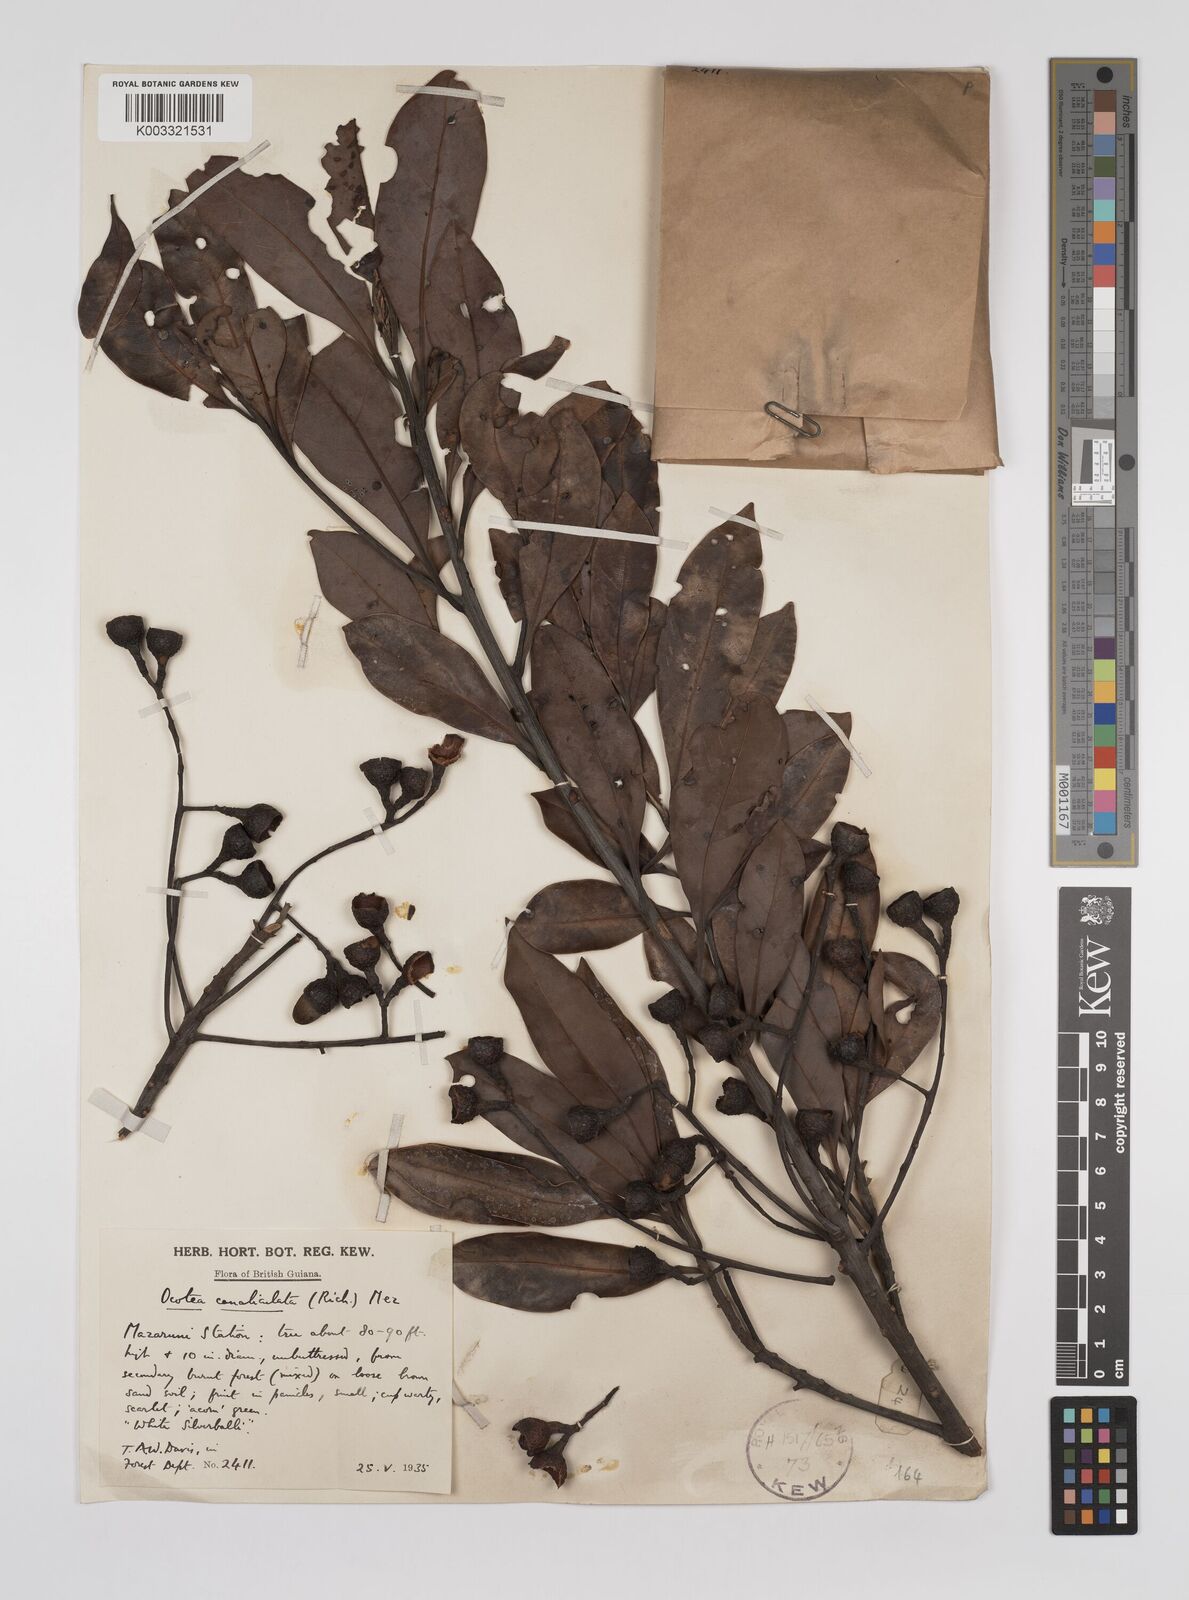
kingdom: Plantae
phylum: Tracheophyta
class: Magnoliopsida
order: Laurales
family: Lauraceae
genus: Ocotea
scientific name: Ocotea canaliculata
